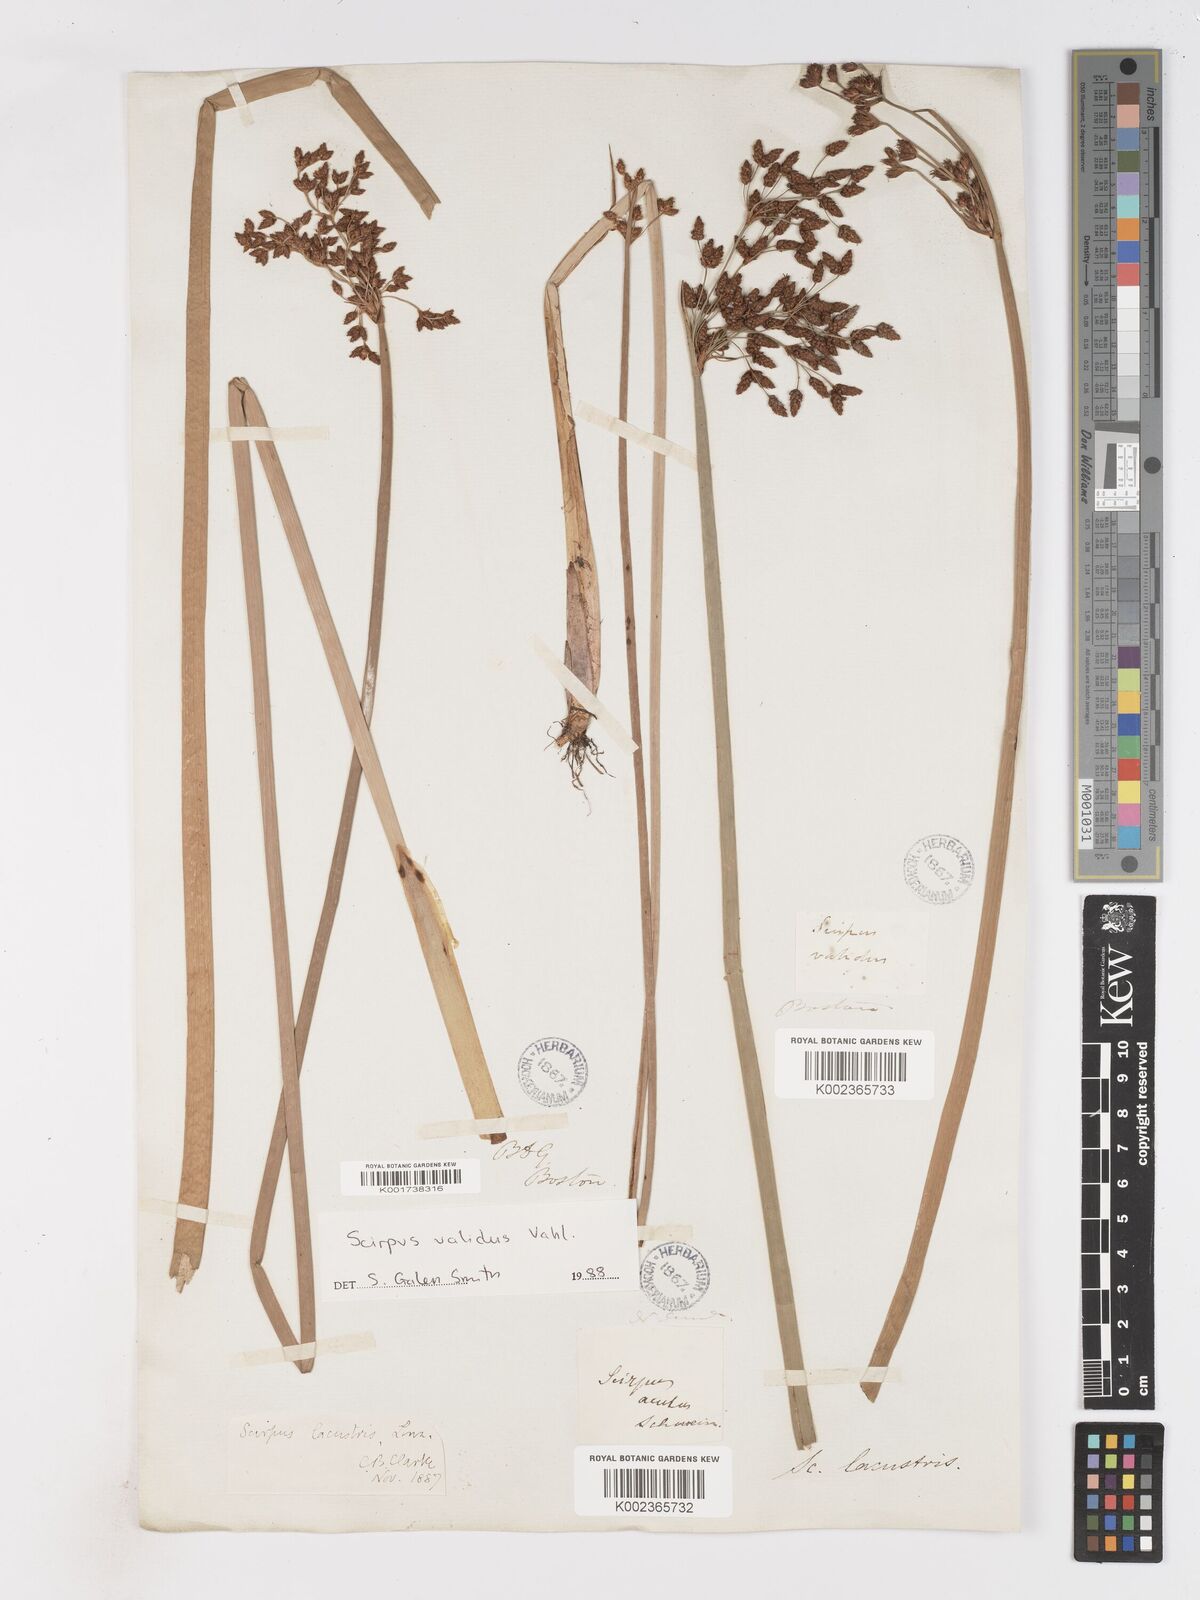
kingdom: Plantae
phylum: Tracheophyta
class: Liliopsida
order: Poales
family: Cyperaceae
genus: Schoenoplectus
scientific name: Schoenoplectus lacustris
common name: Common club-rush
